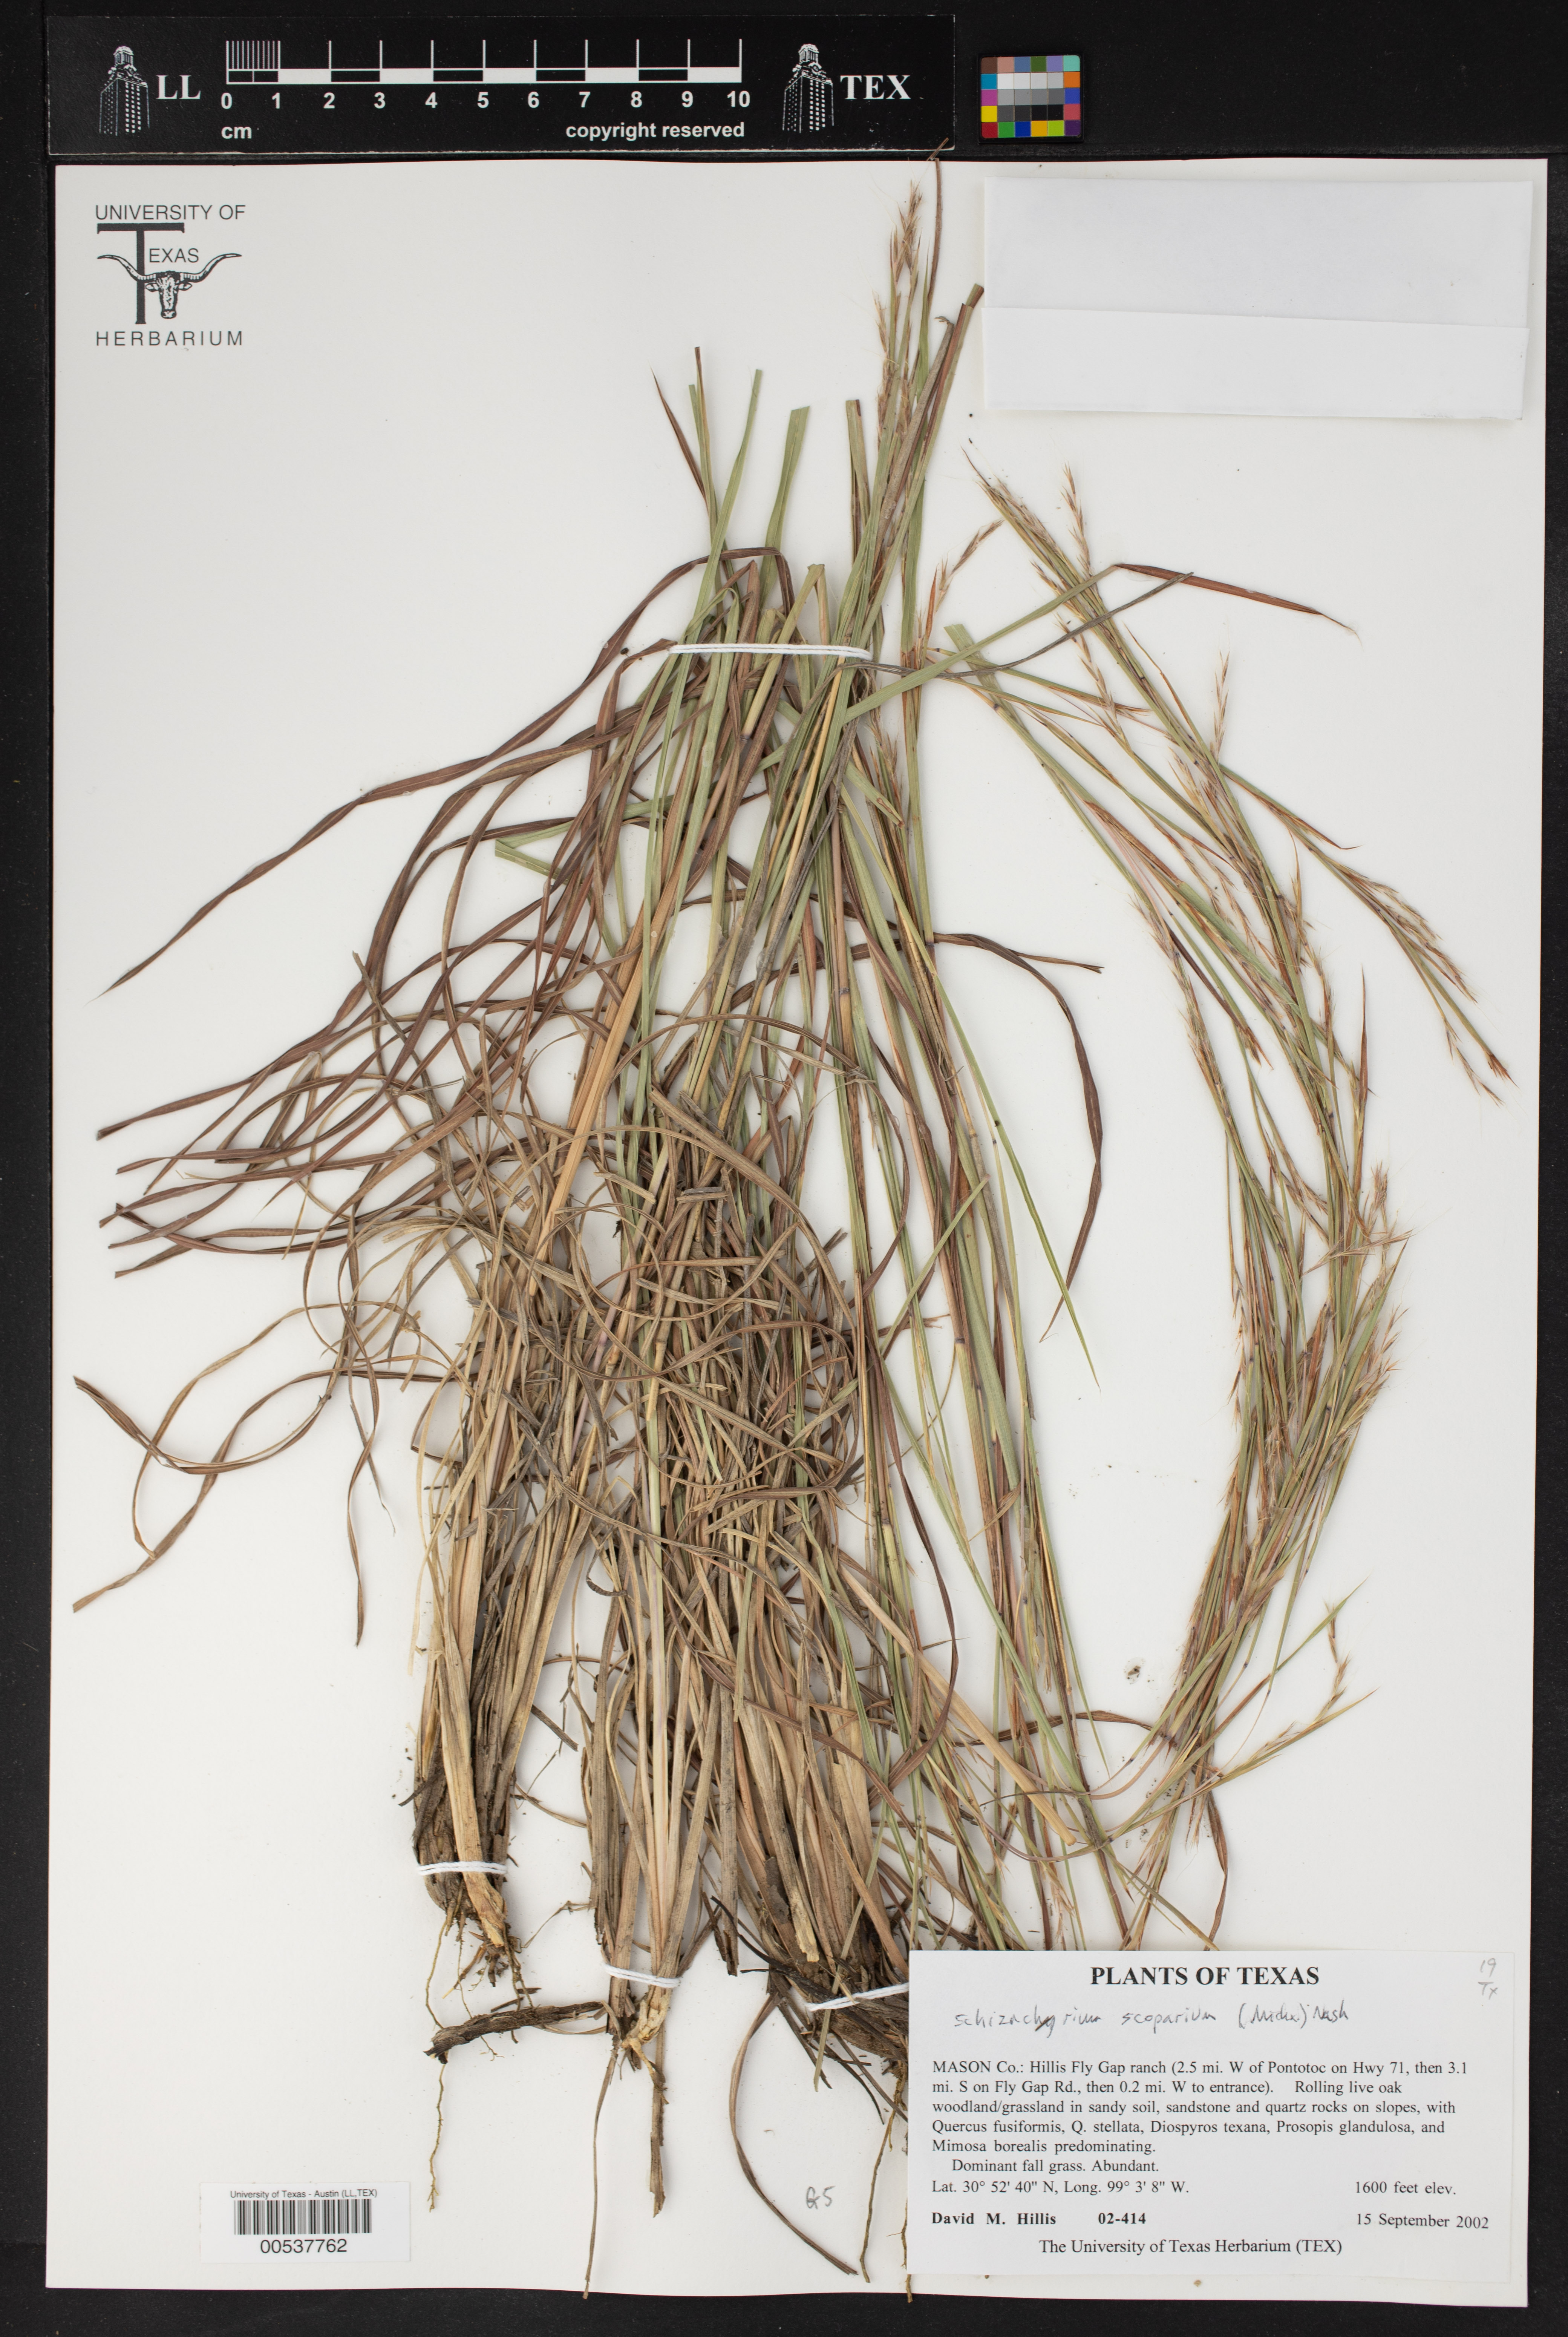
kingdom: Plantae
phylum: Tracheophyta
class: Liliopsida
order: Poales
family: Poaceae
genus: Schizachyrium
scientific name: Schizachyrium scoparium
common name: Little bluestem
